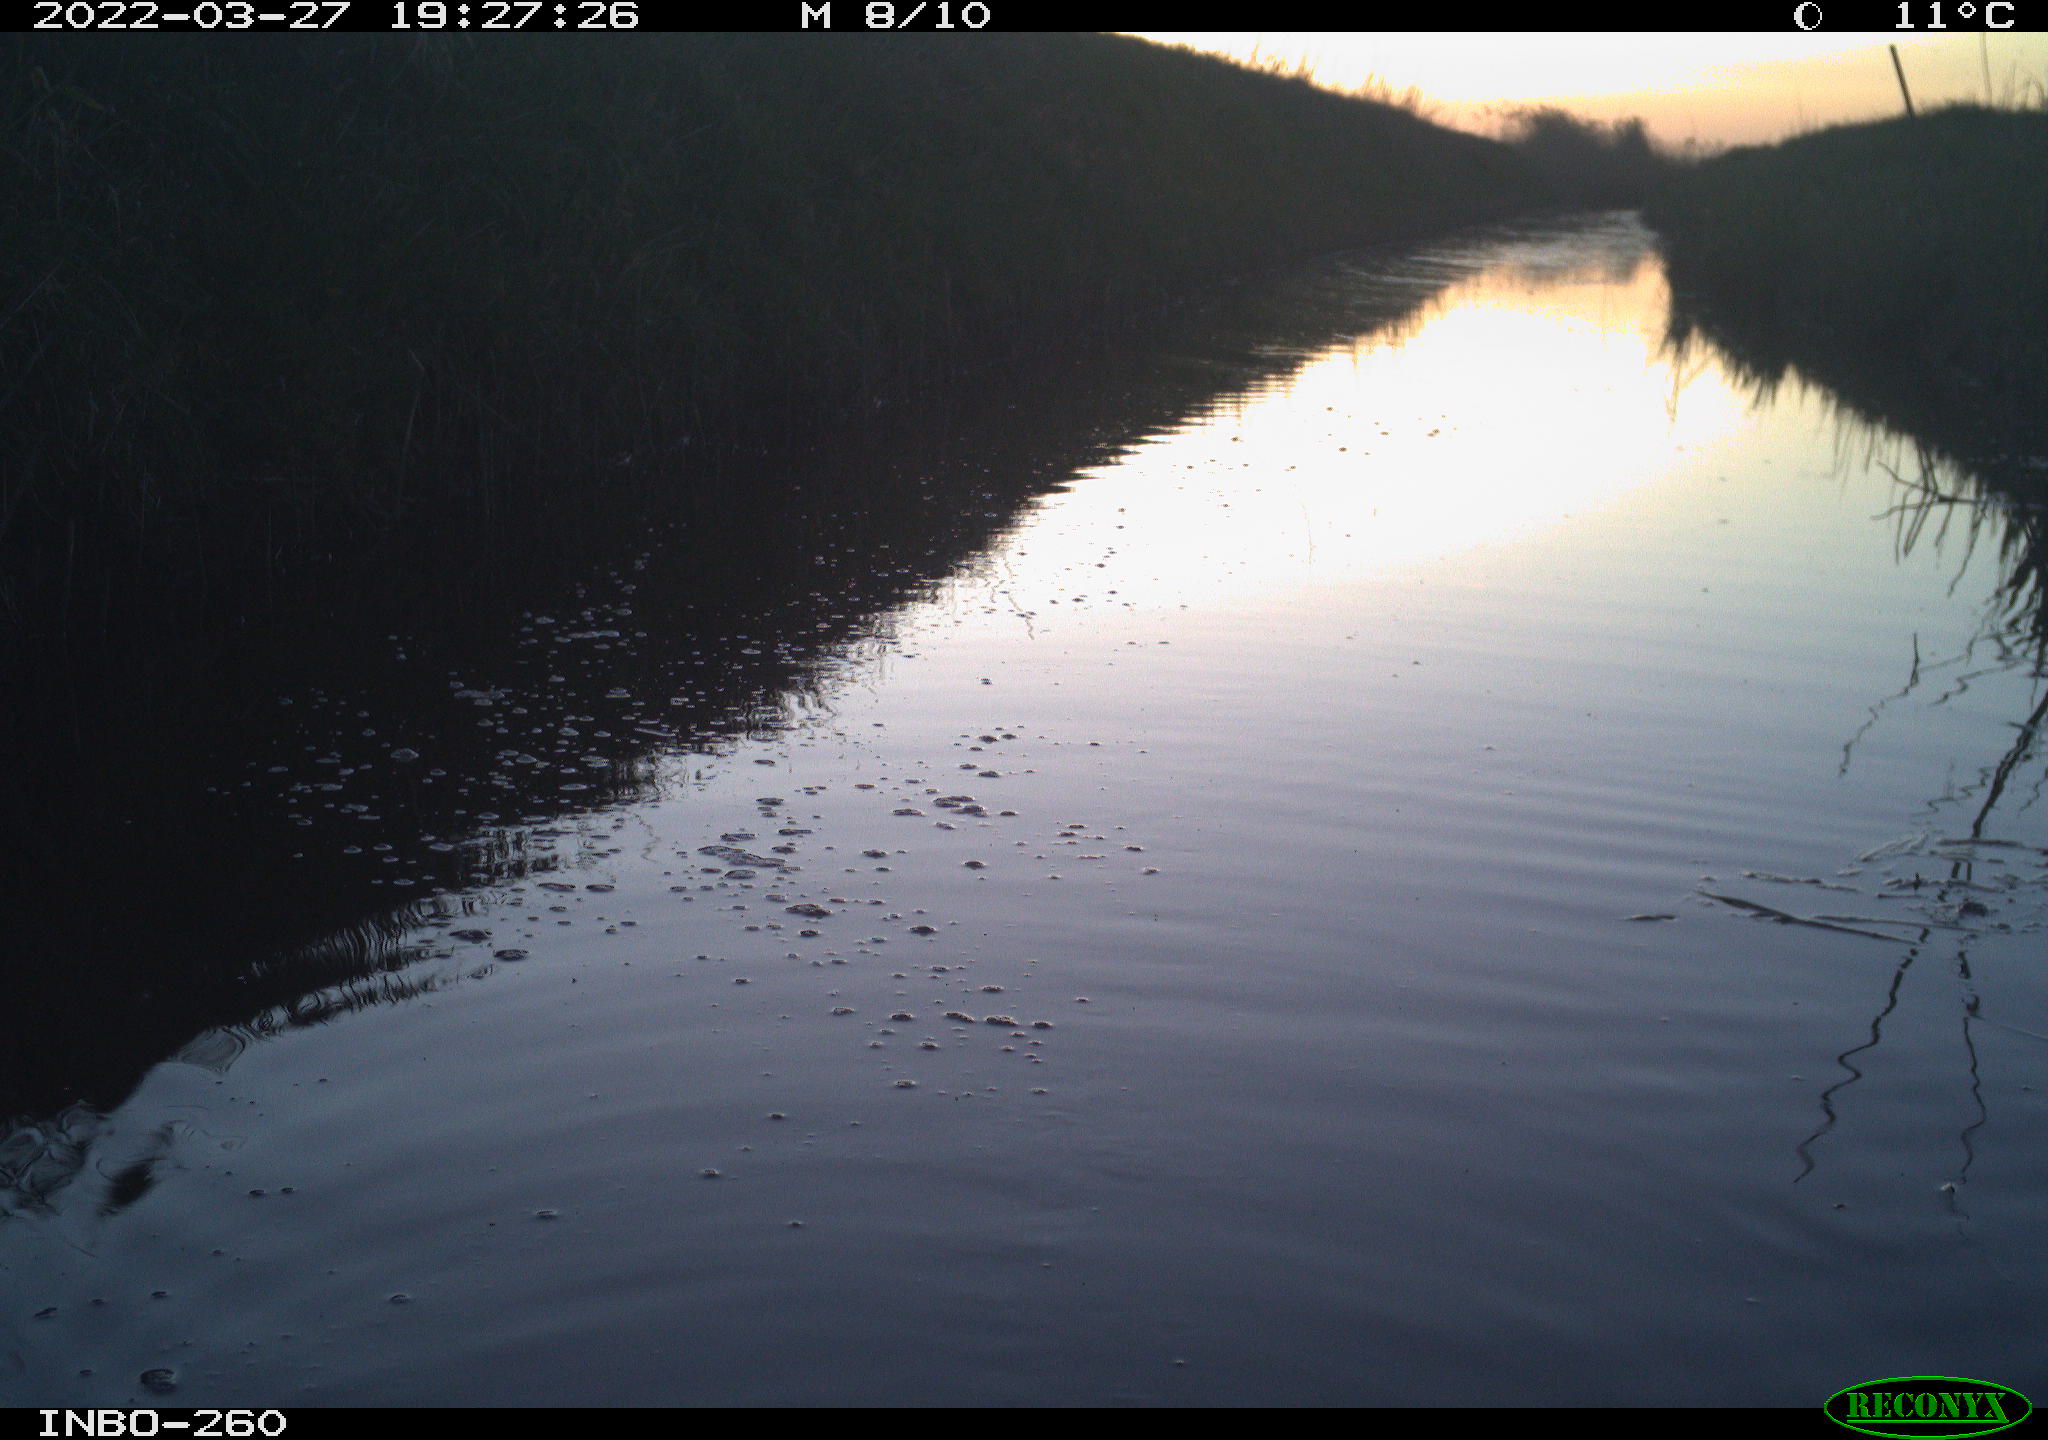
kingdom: Animalia
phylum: Chordata
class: Mammalia
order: Rodentia
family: Muridae
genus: Rattus
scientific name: Rattus norvegicus
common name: Brown rat
